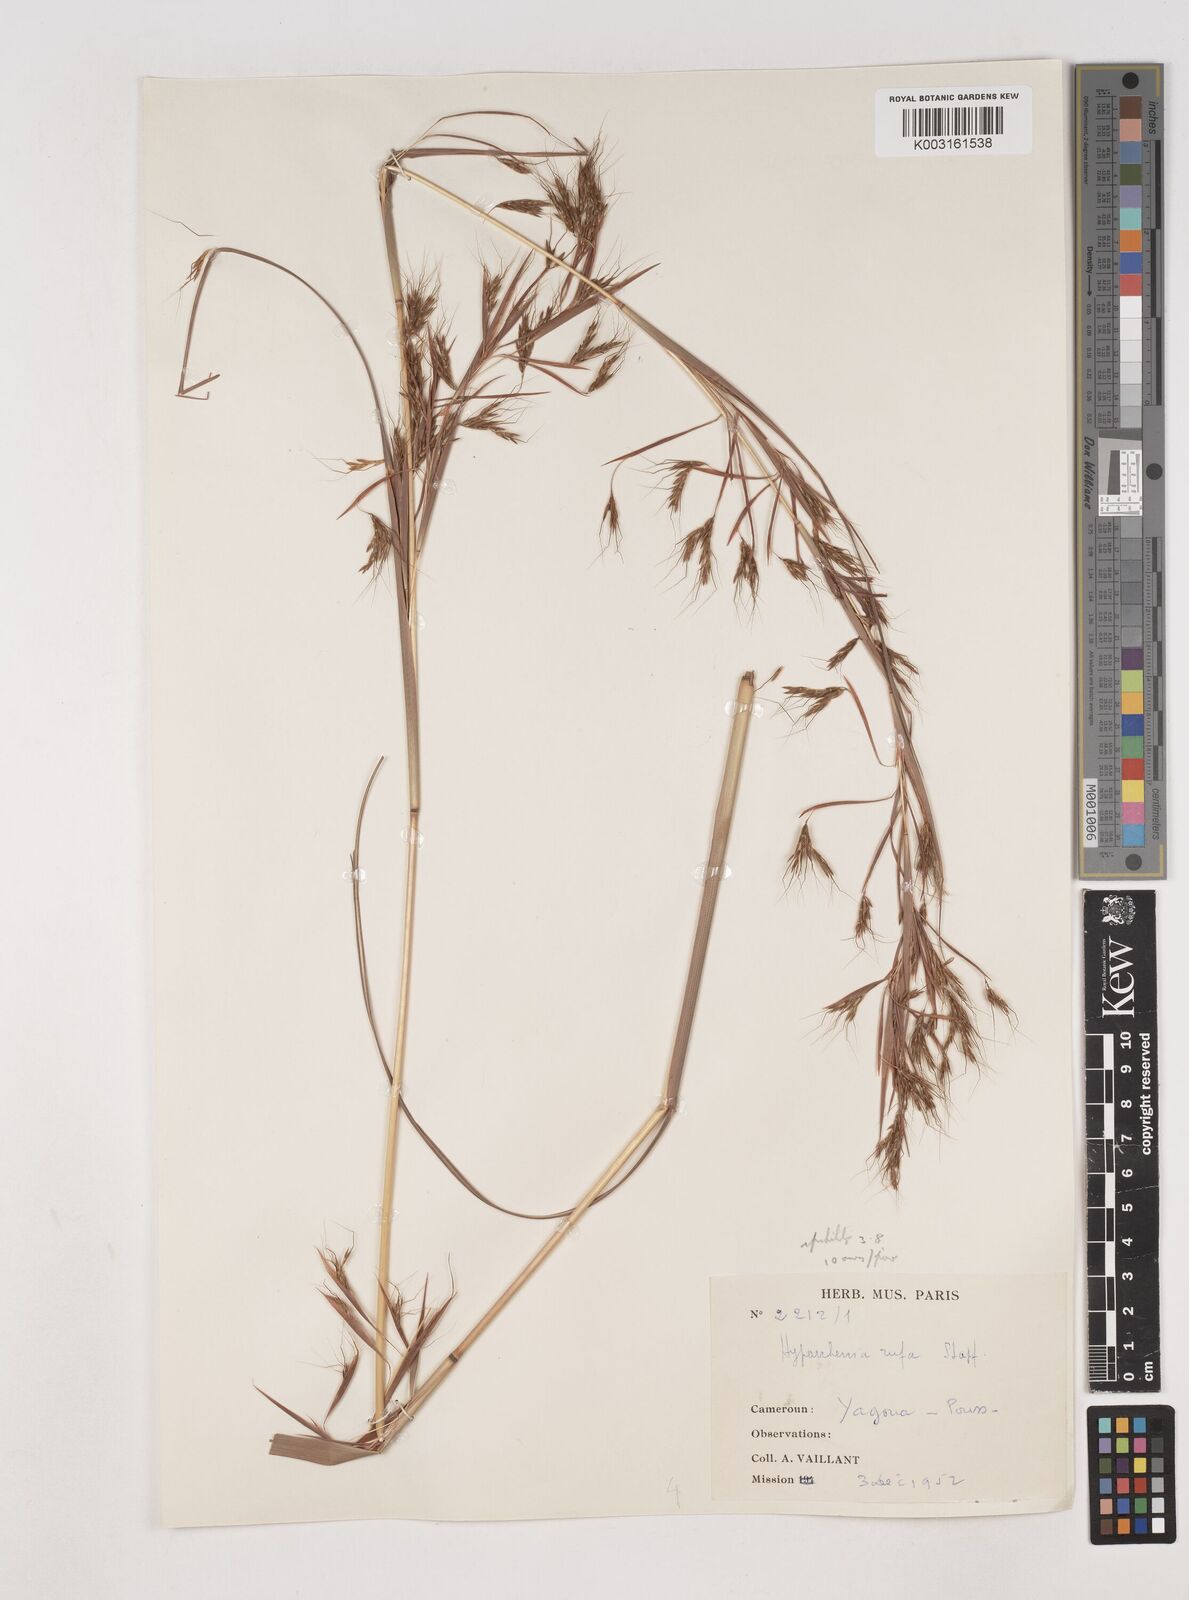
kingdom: Plantae
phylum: Tracheophyta
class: Liliopsida
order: Poales
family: Poaceae
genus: Hyparrhenia
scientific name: Hyparrhenia rufa
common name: Jaraguagrass
